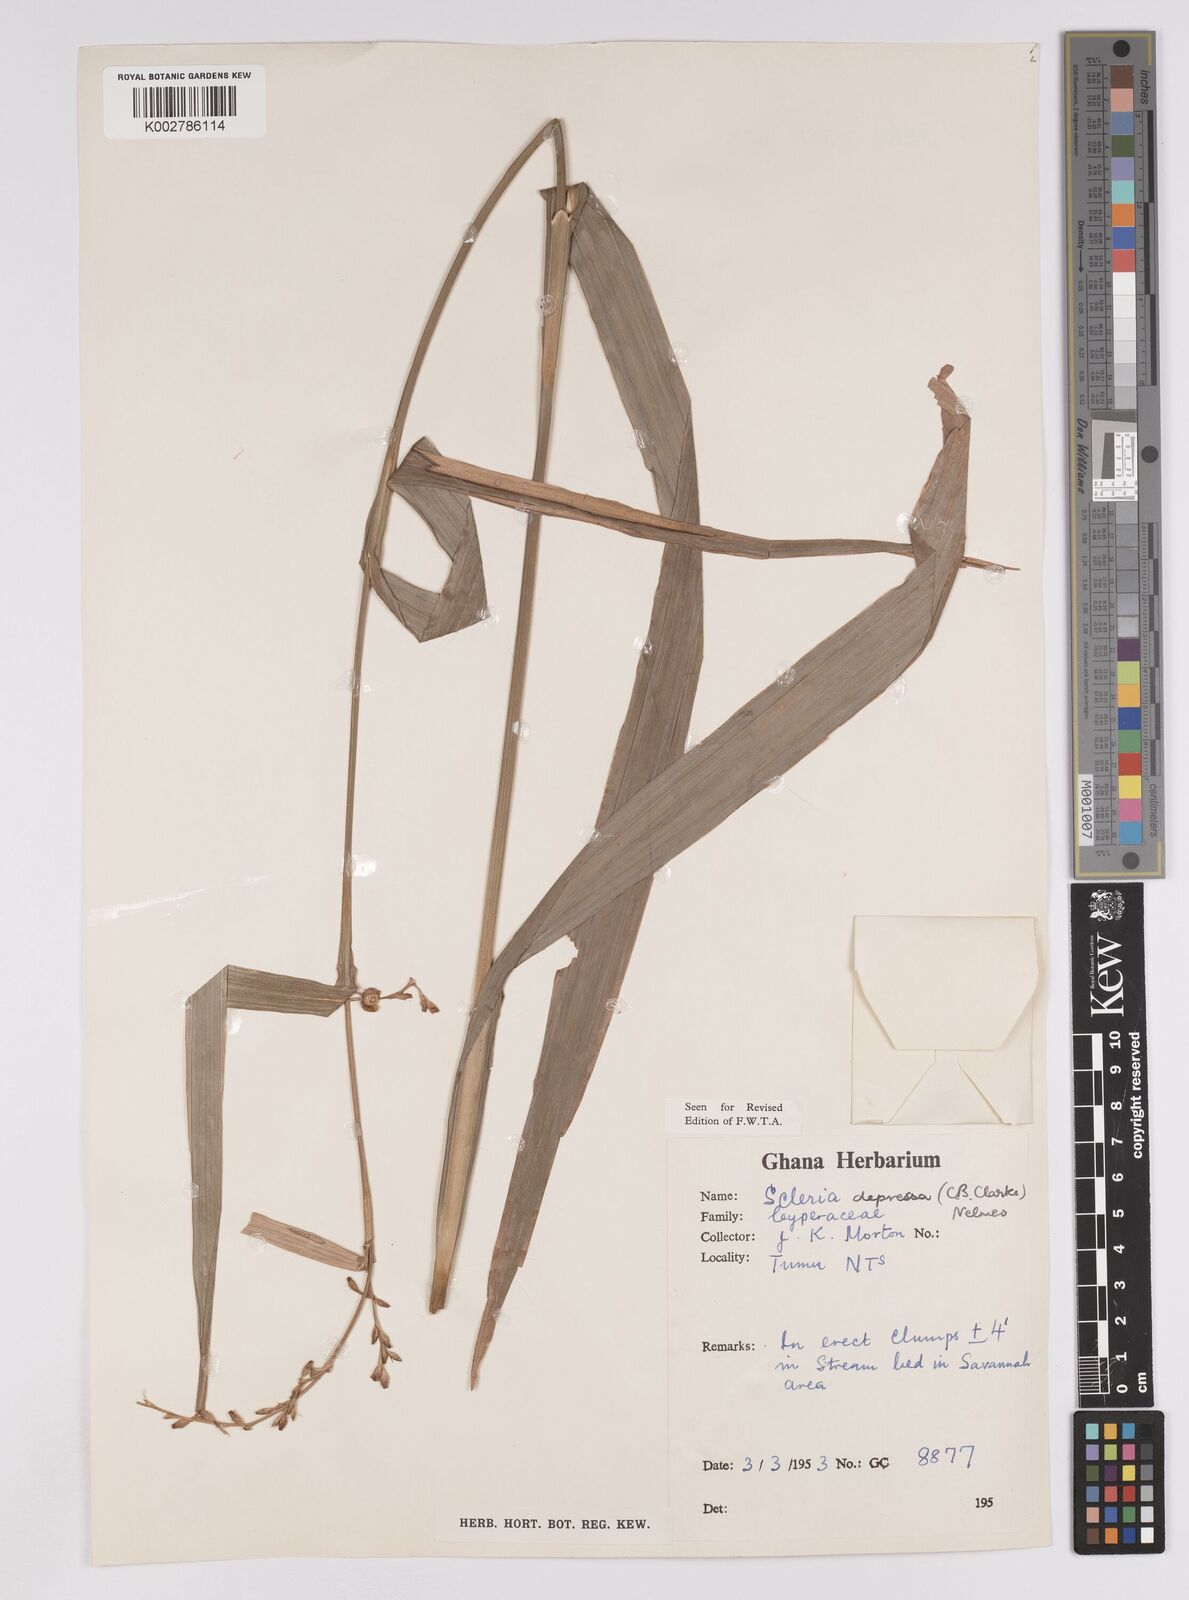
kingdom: Plantae
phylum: Tracheophyta
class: Liliopsida
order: Poales
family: Cyperaceae
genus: Scleria
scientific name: Scleria depressa
